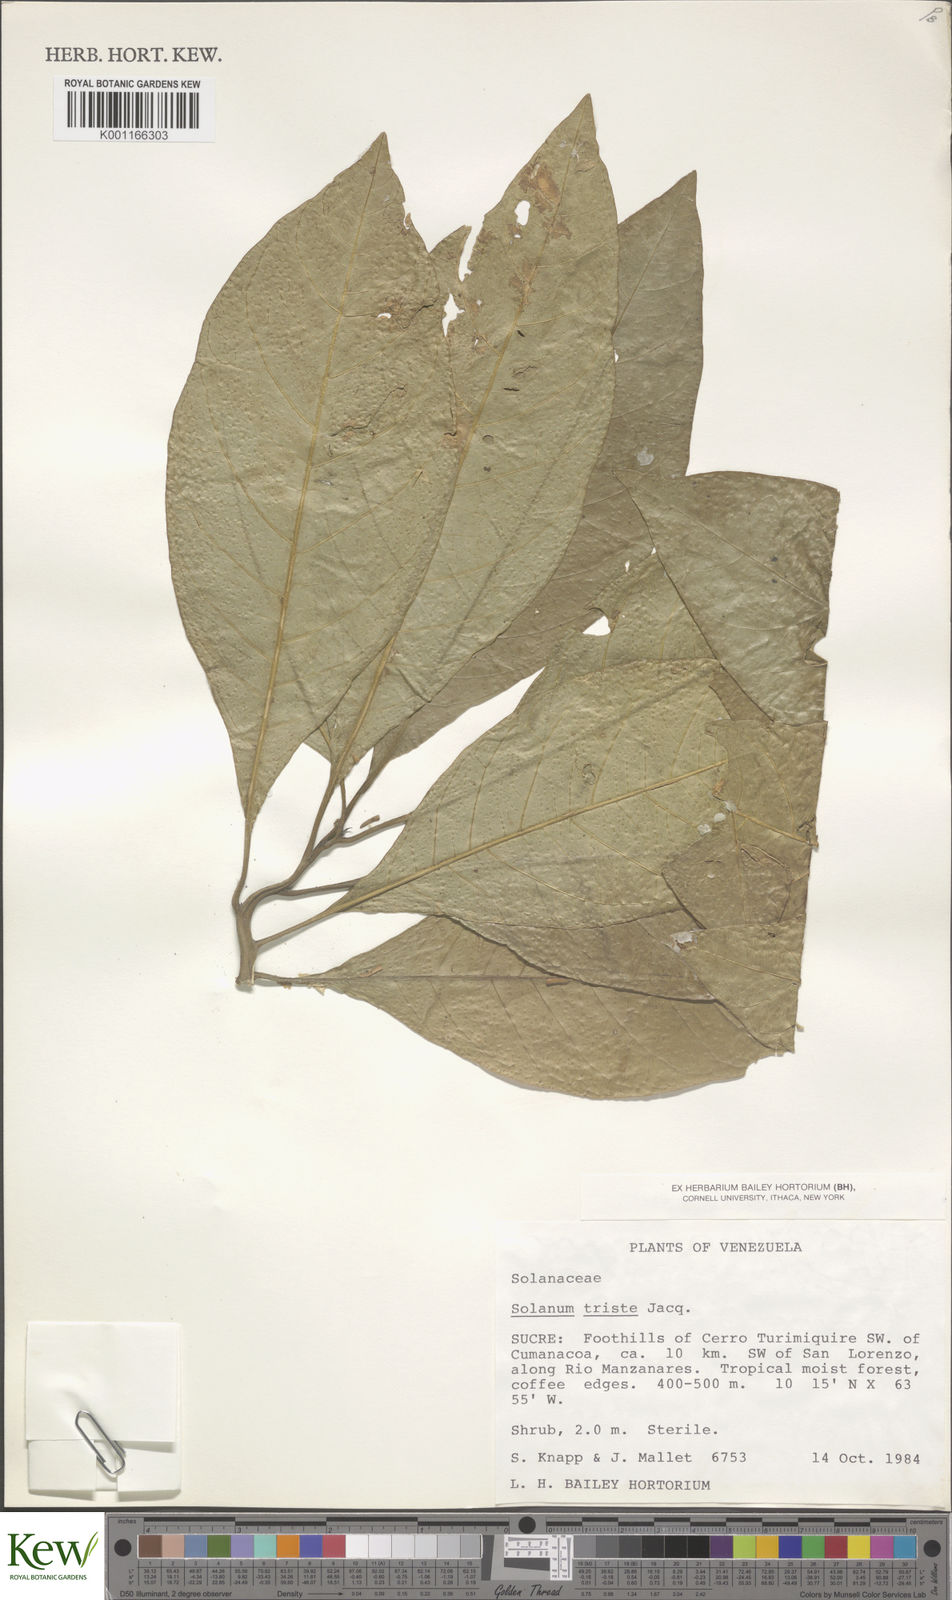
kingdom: Plantae
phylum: Tracheophyta
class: Magnoliopsida
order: Solanales
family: Solanaceae
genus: Solanum
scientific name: Solanum triste
